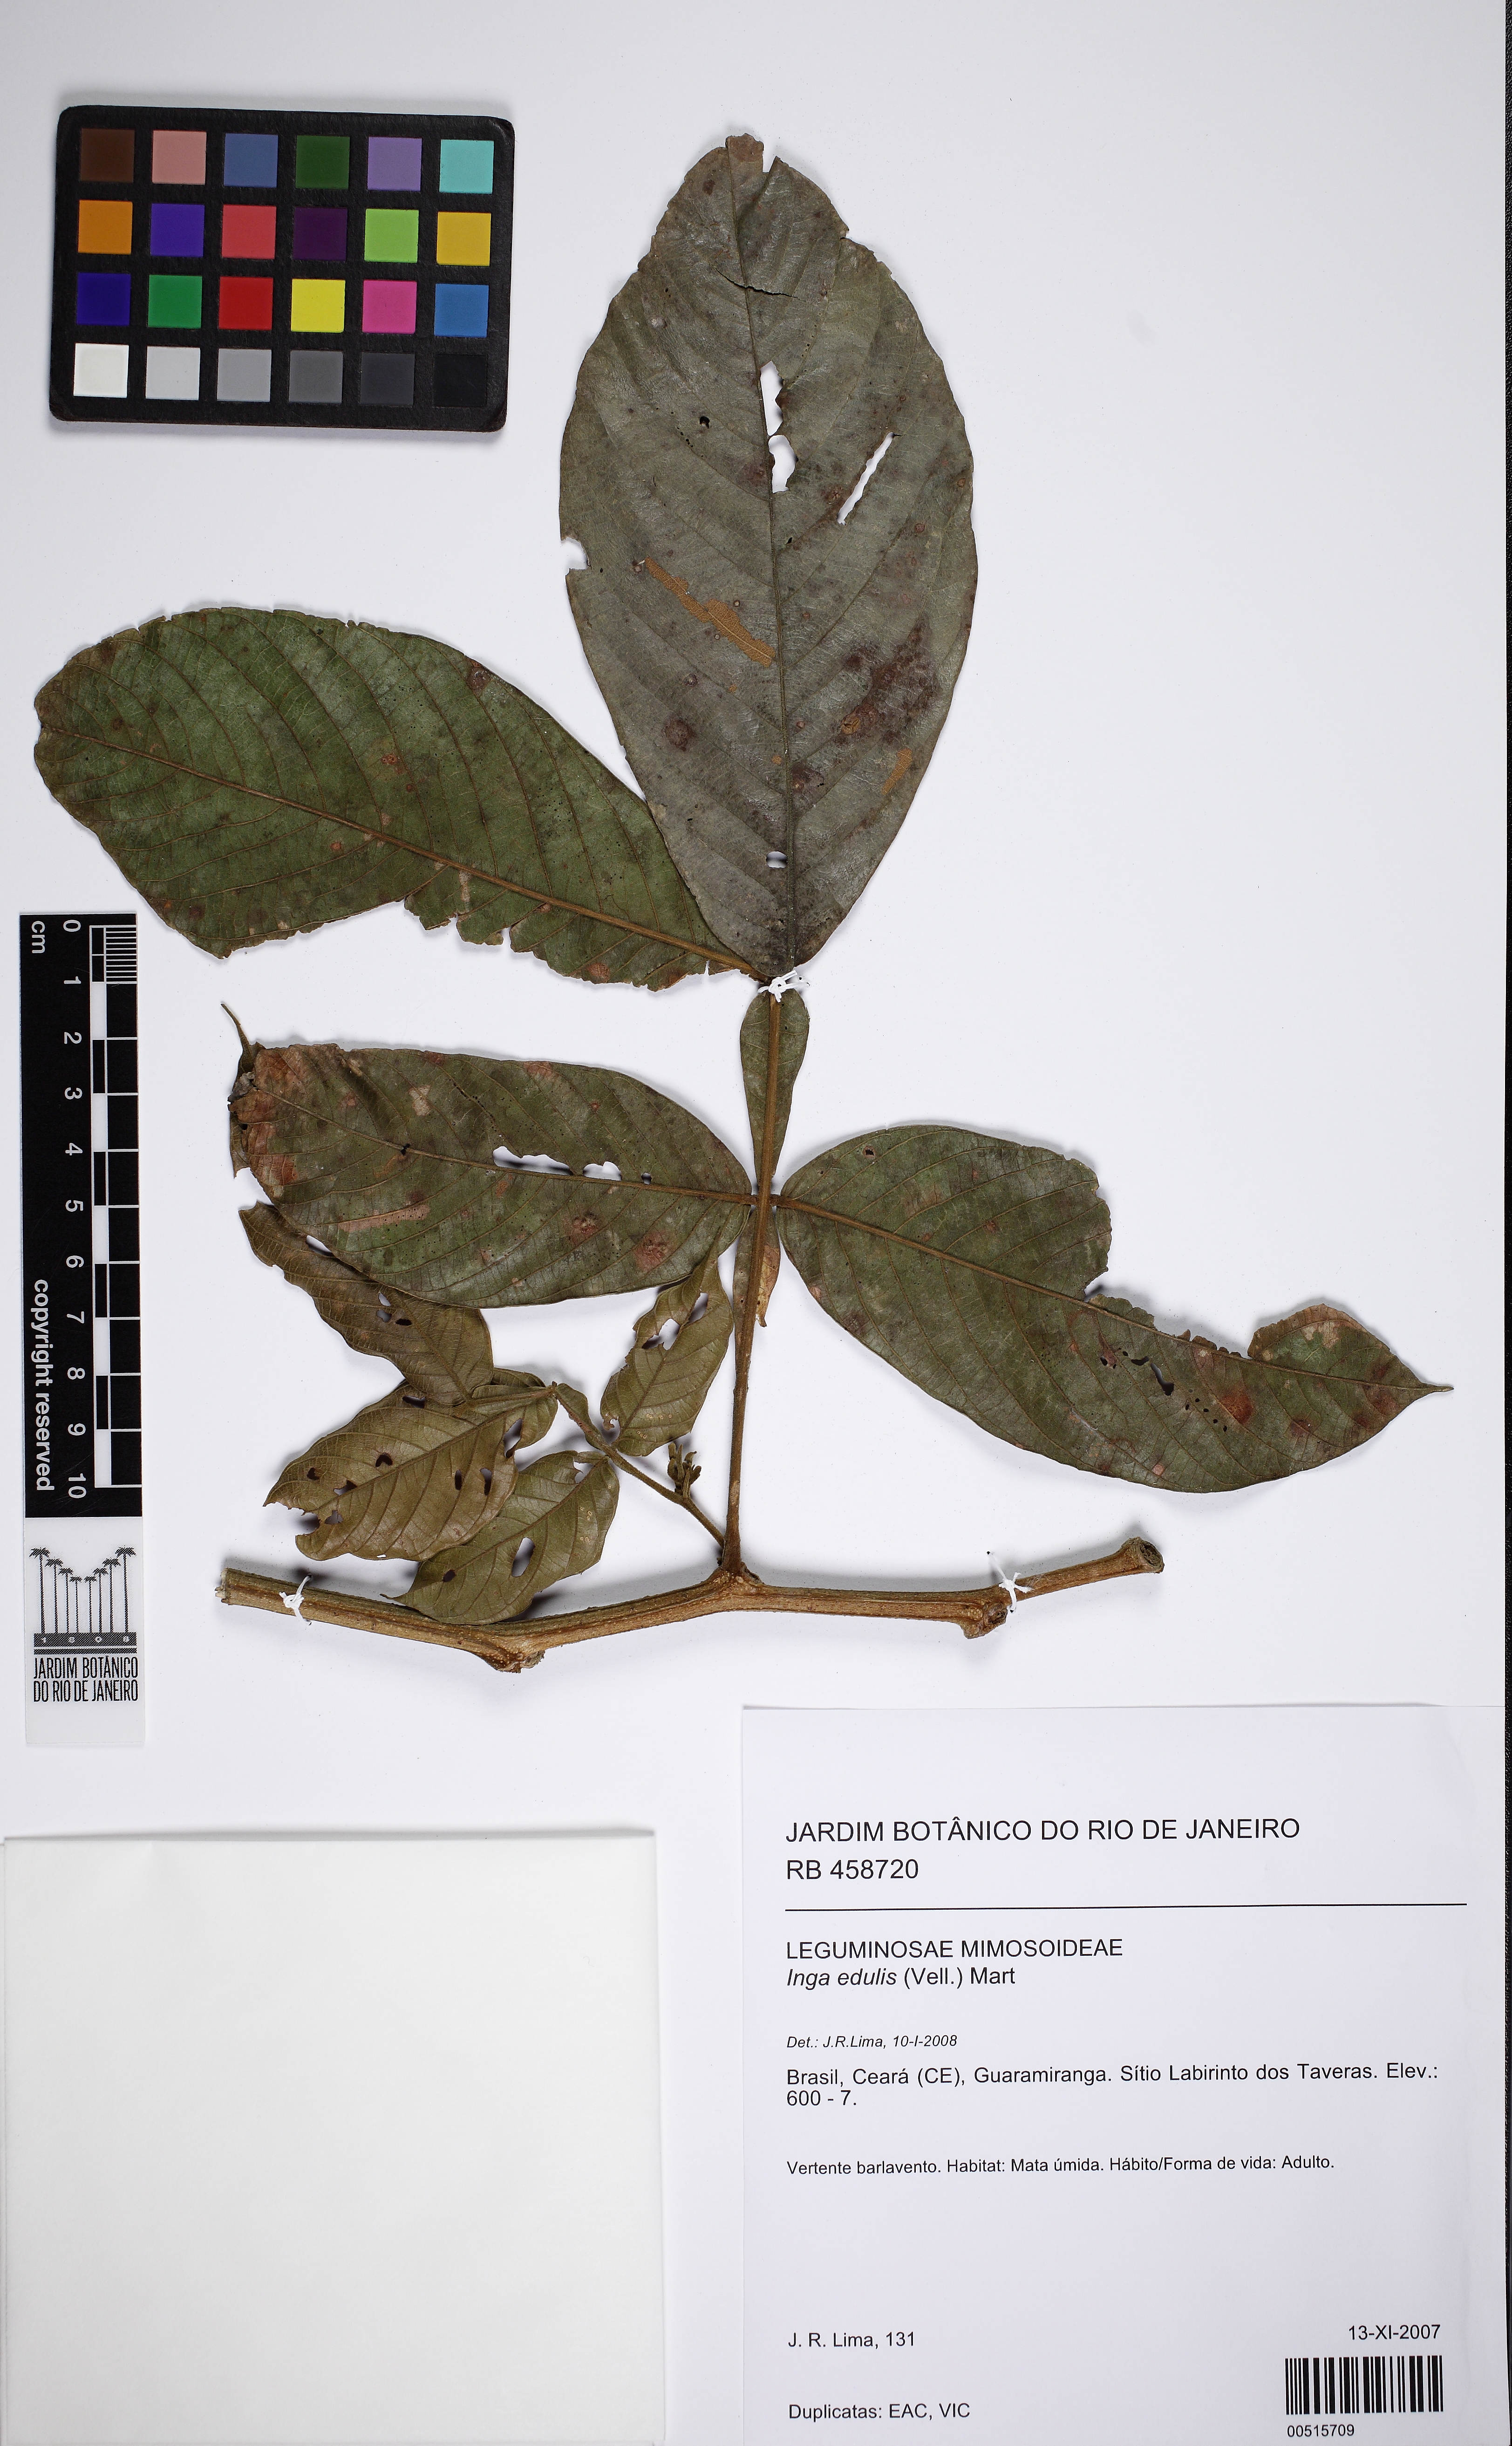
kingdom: Plantae
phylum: Tracheophyta
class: Magnoliopsida
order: Fabales
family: Fabaceae
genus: Inga
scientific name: Inga edulis
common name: Ice cream bean
